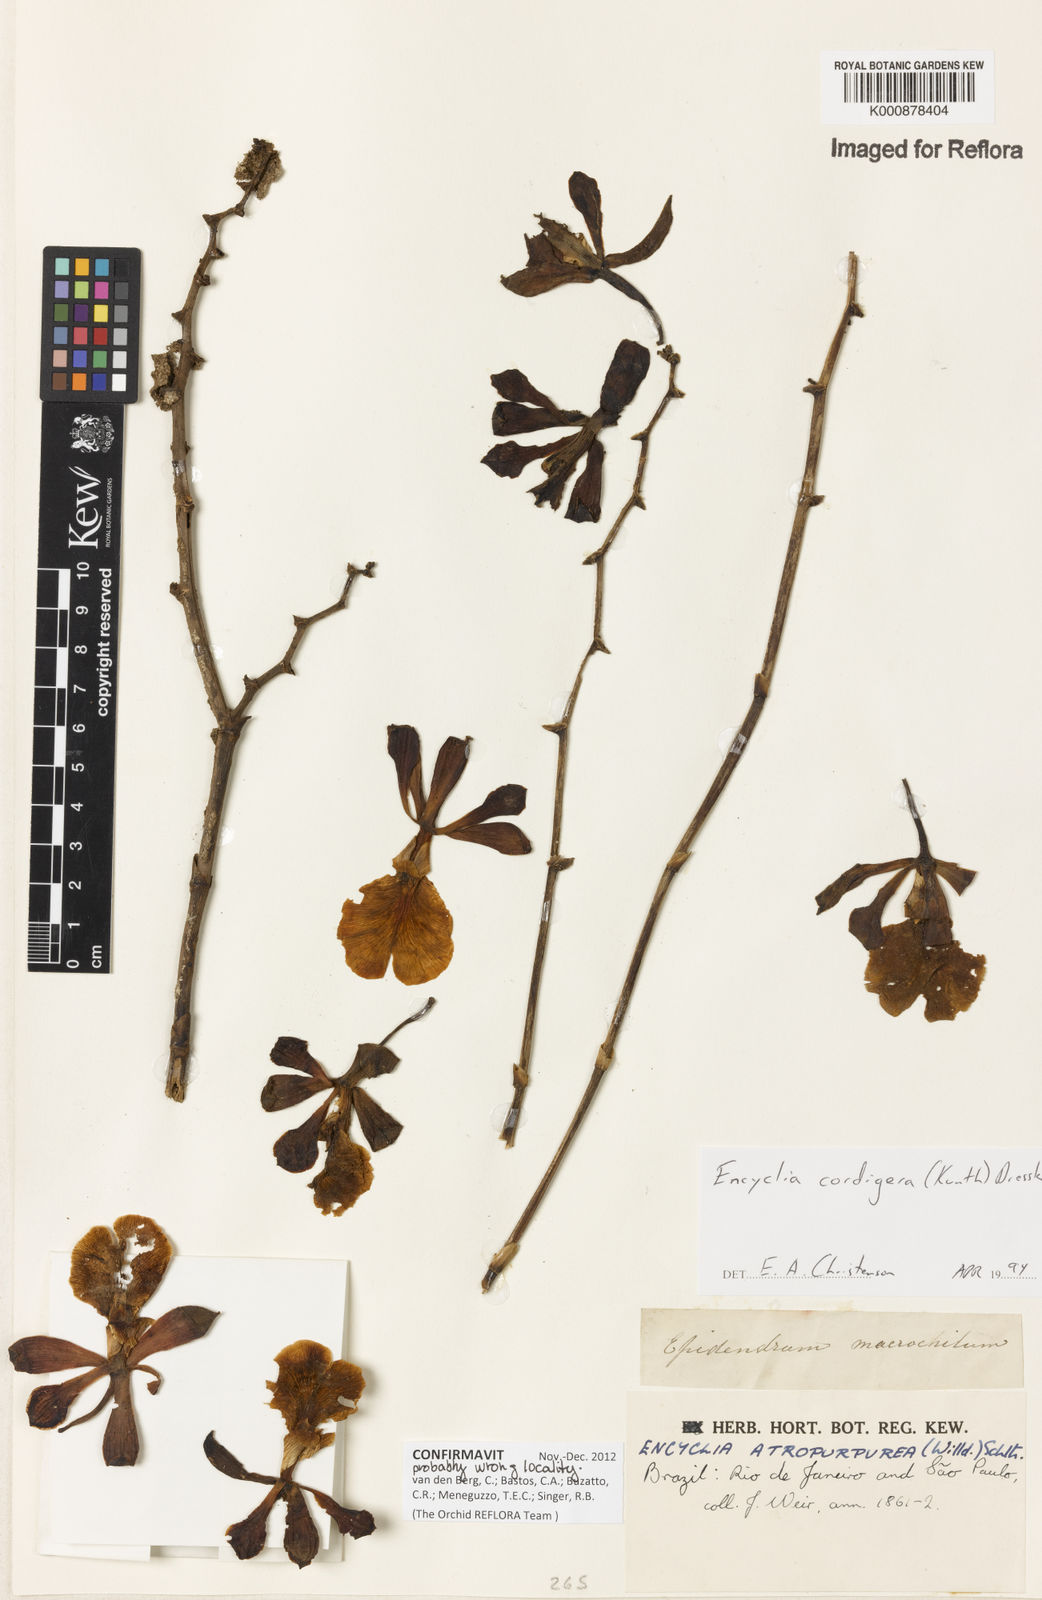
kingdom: Plantae
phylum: Tracheophyta
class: Liliopsida
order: Asparagales
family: Orchidaceae
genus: Encyclia
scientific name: Encyclia cordigera
